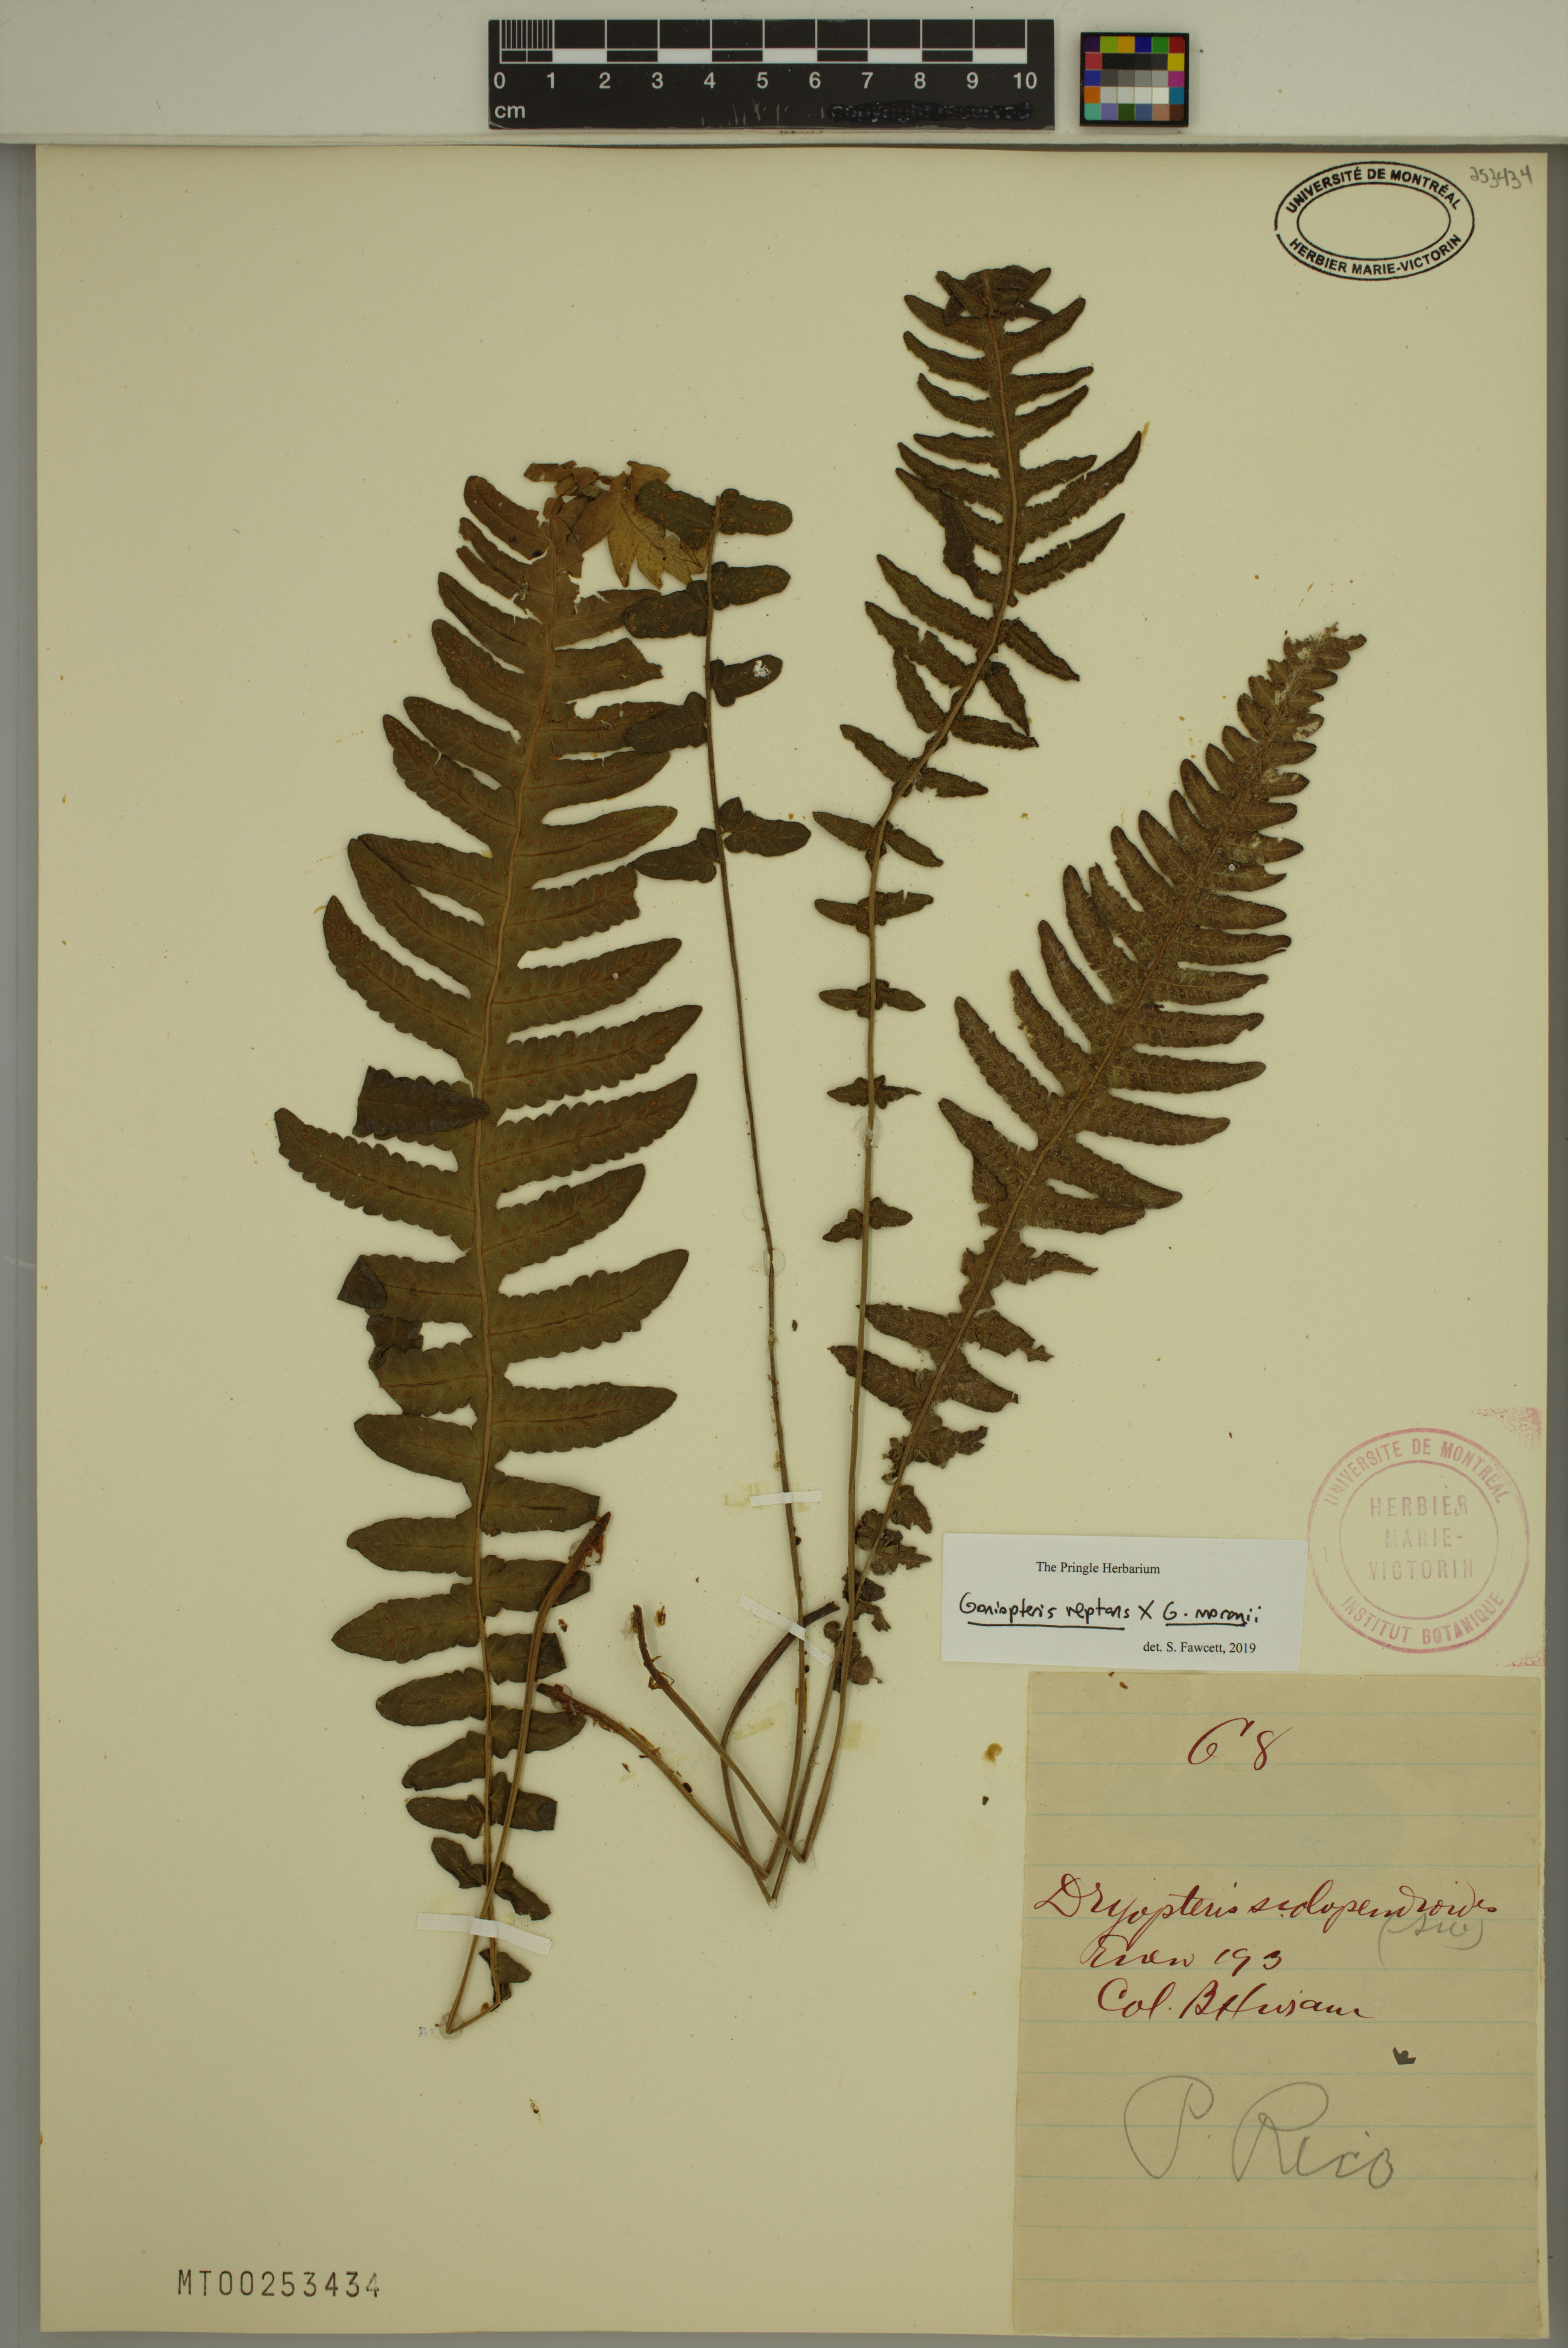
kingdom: Plantae
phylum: Tracheophyta
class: Polypodiopsida
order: Polypodiales
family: Thelypteridaceae
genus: Goniopteris
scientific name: Goniopteris domingensis
